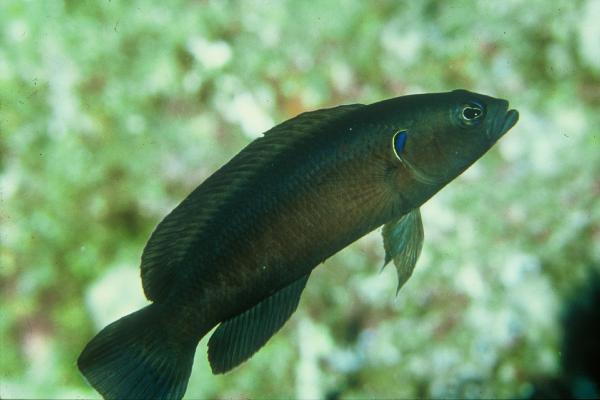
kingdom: Animalia
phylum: Chordata
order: Perciformes
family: Pseudochromidae
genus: Pseudochromis
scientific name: Pseudochromis melas
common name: Dark dottyback
